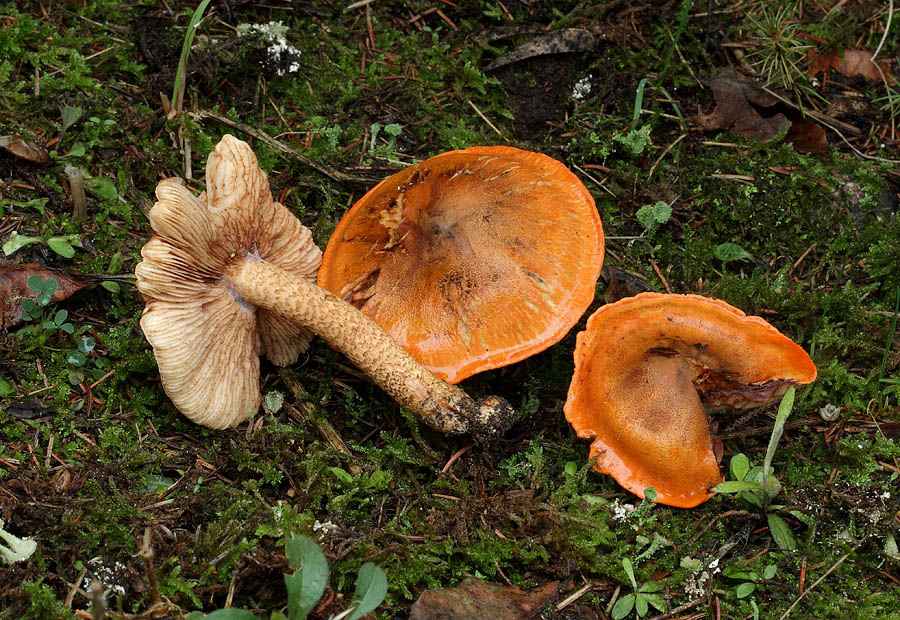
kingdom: Fungi
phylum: Basidiomycota
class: Agaricomycetes
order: Agaricales
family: Tricholomataceae
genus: Tricholoma
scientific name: Tricholoma aurantium
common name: orangegul ridderhat
